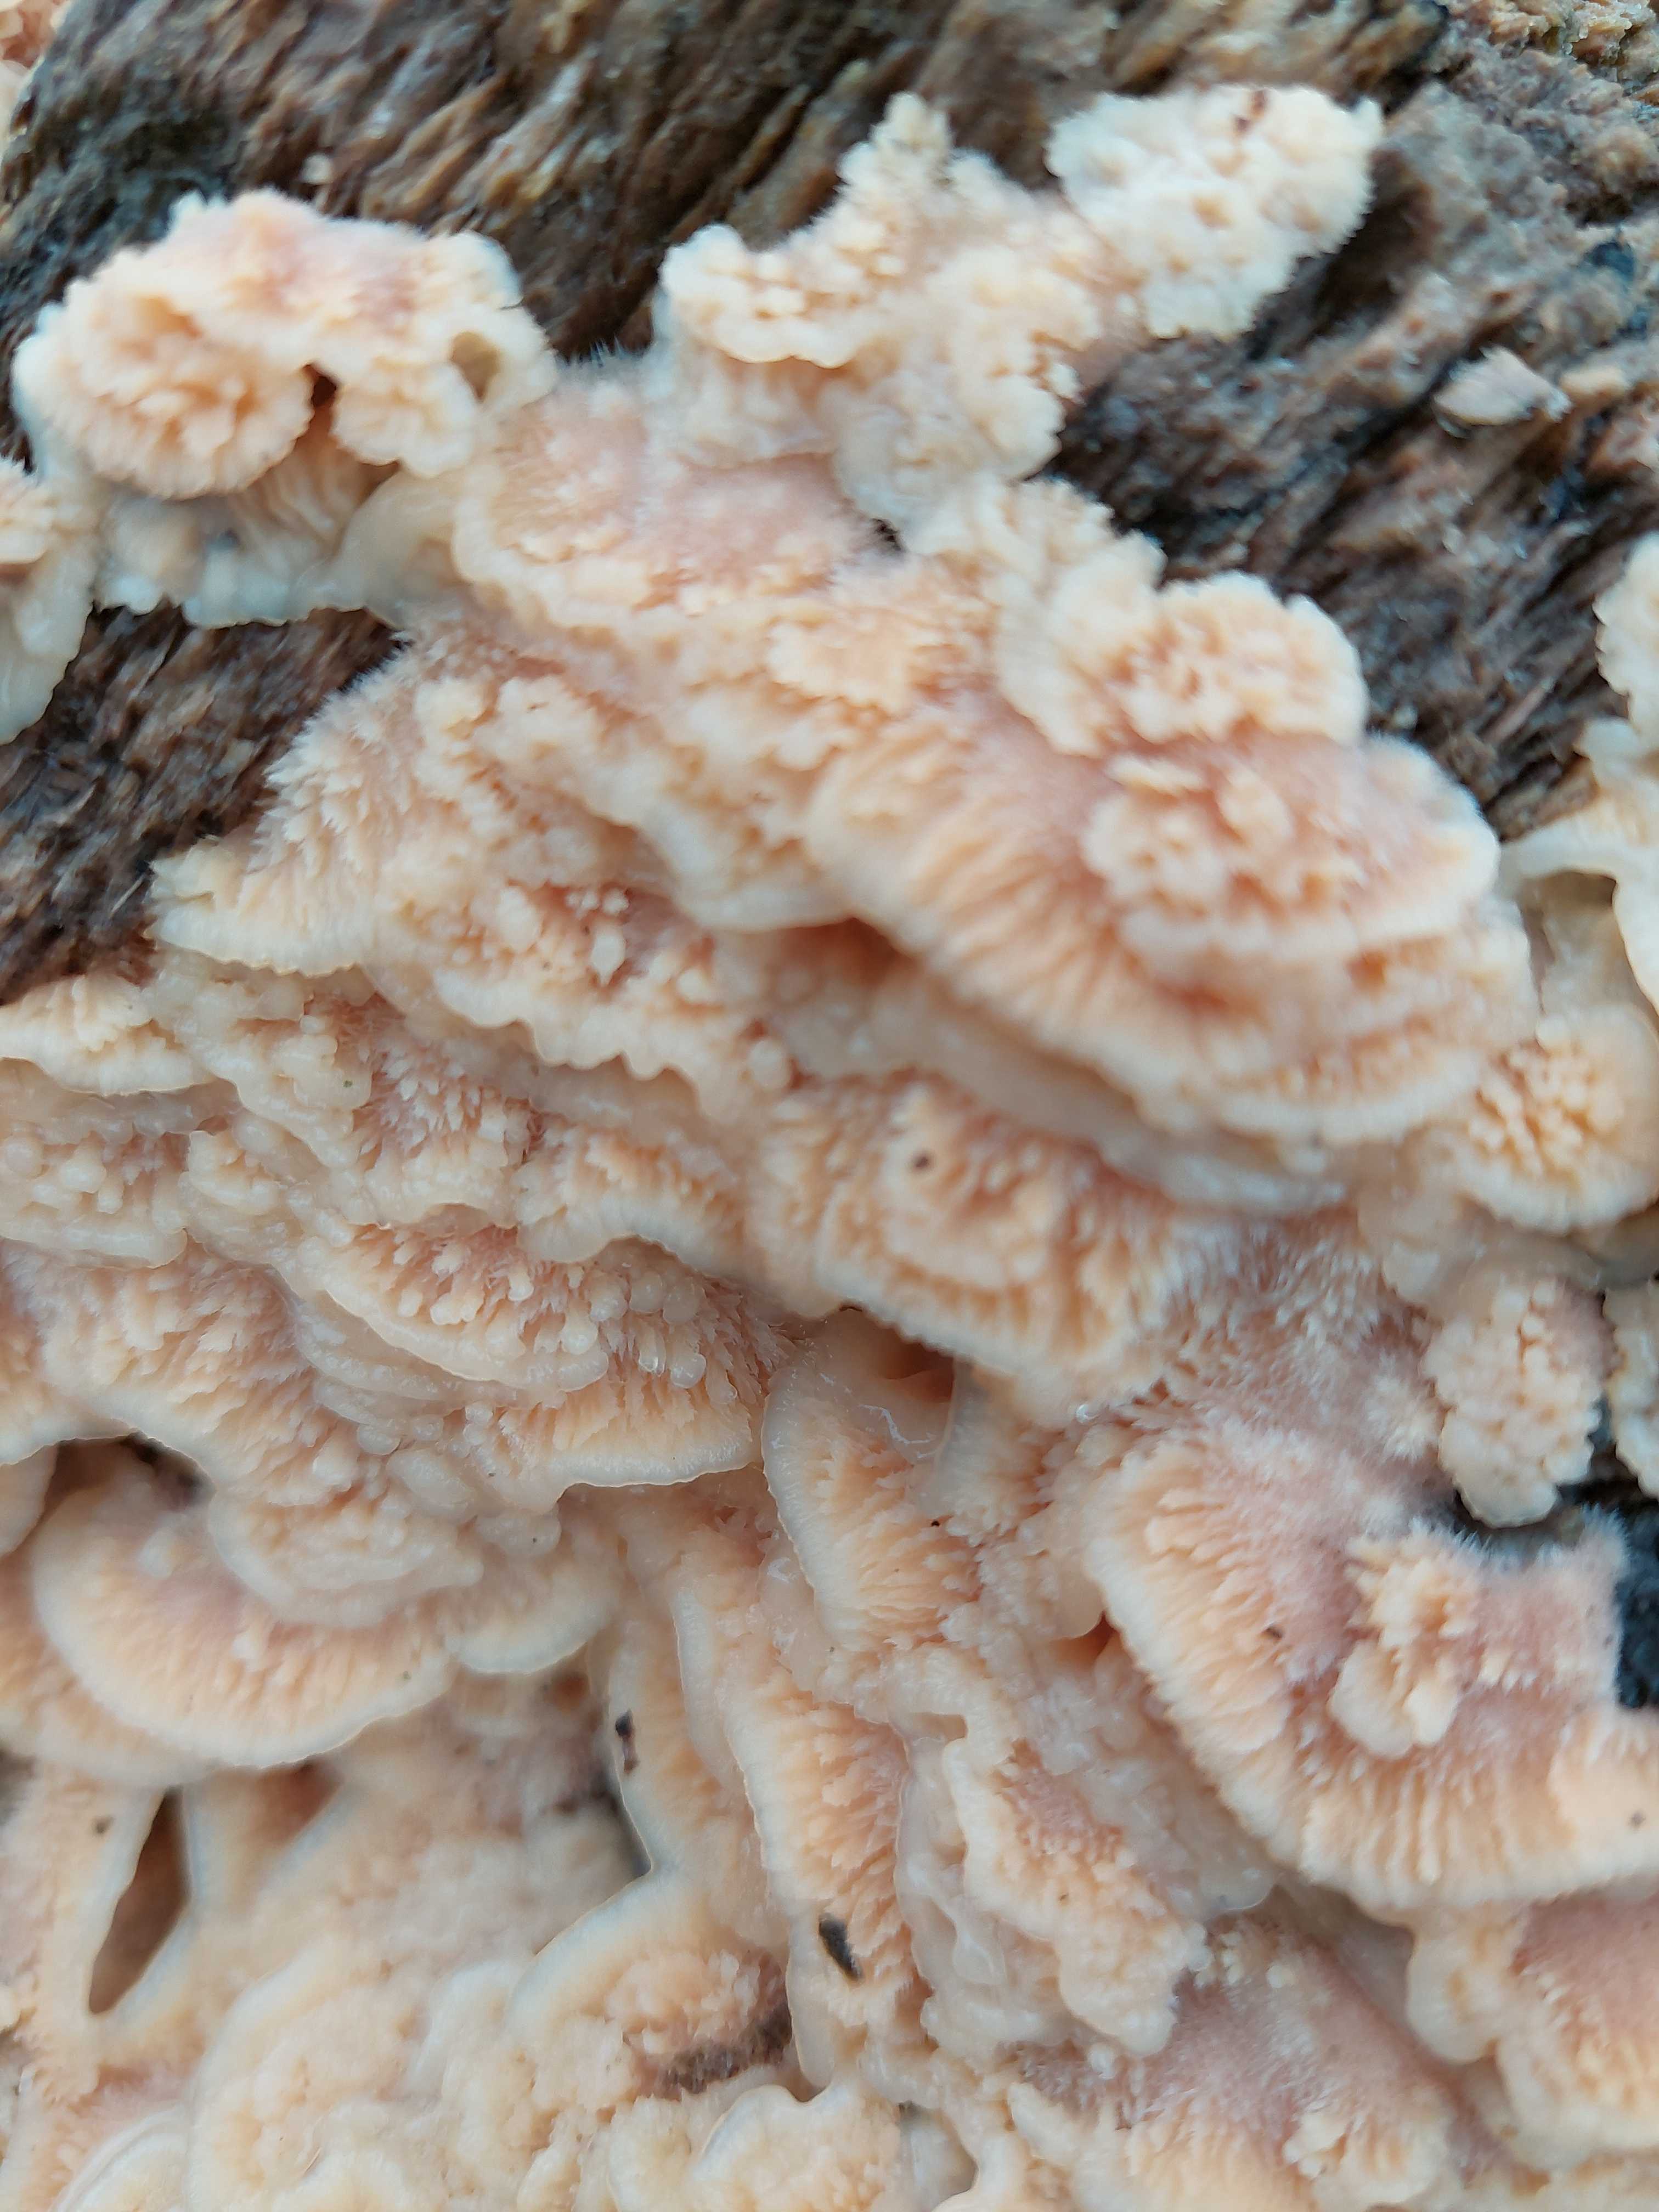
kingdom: Fungi
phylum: Basidiomycota
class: Agaricomycetes
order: Polyporales
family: Meruliaceae
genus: Phlebia
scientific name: Phlebia tremellosa
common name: bævrende åresvamp
